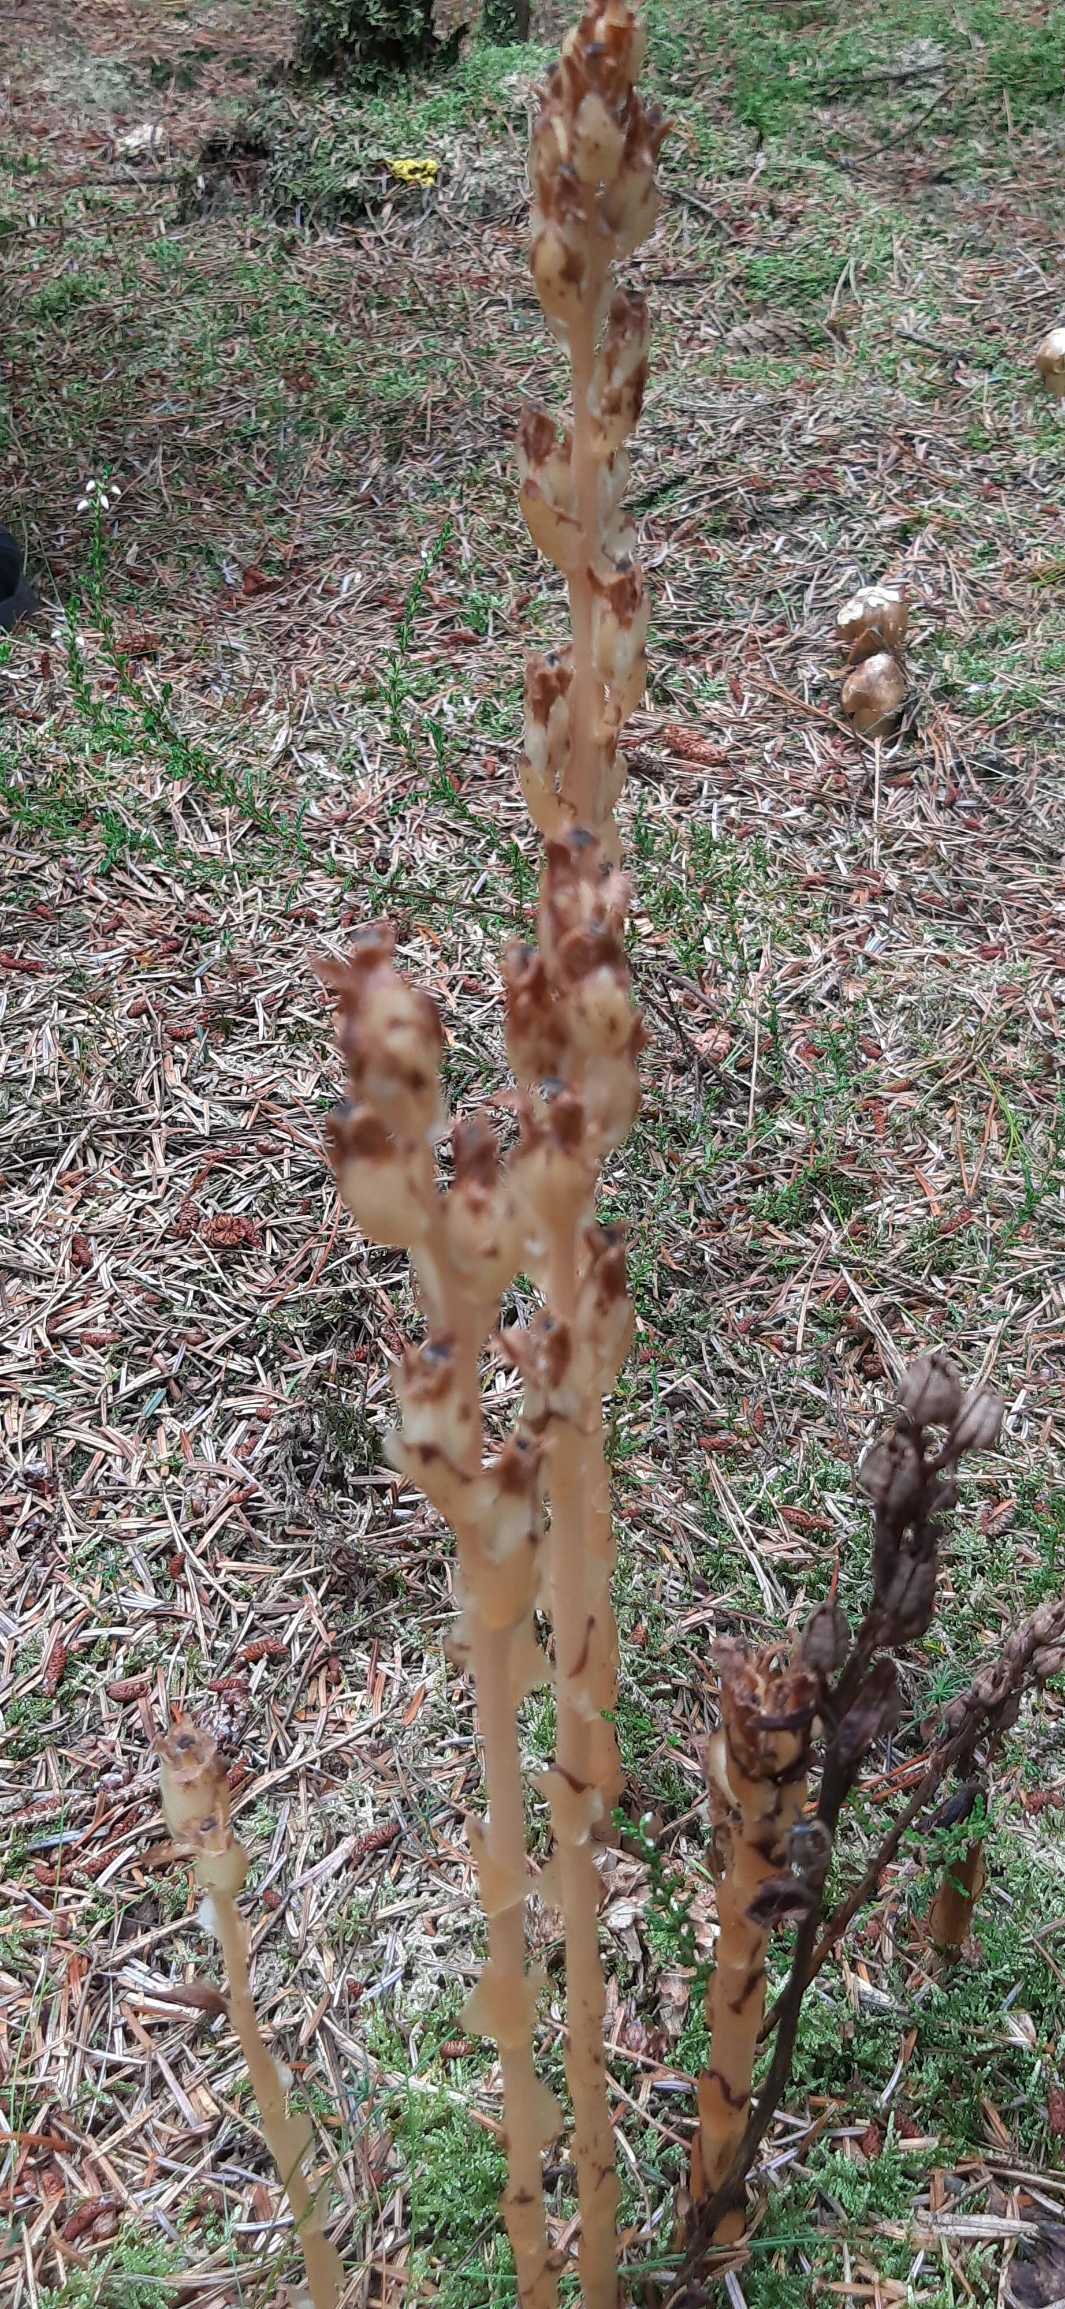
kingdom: Plantae
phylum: Tracheophyta
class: Magnoliopsida
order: Ericales
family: Ericaceae
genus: Hypopitys
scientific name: Hypopitys hypophegea
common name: Glat snylterod
